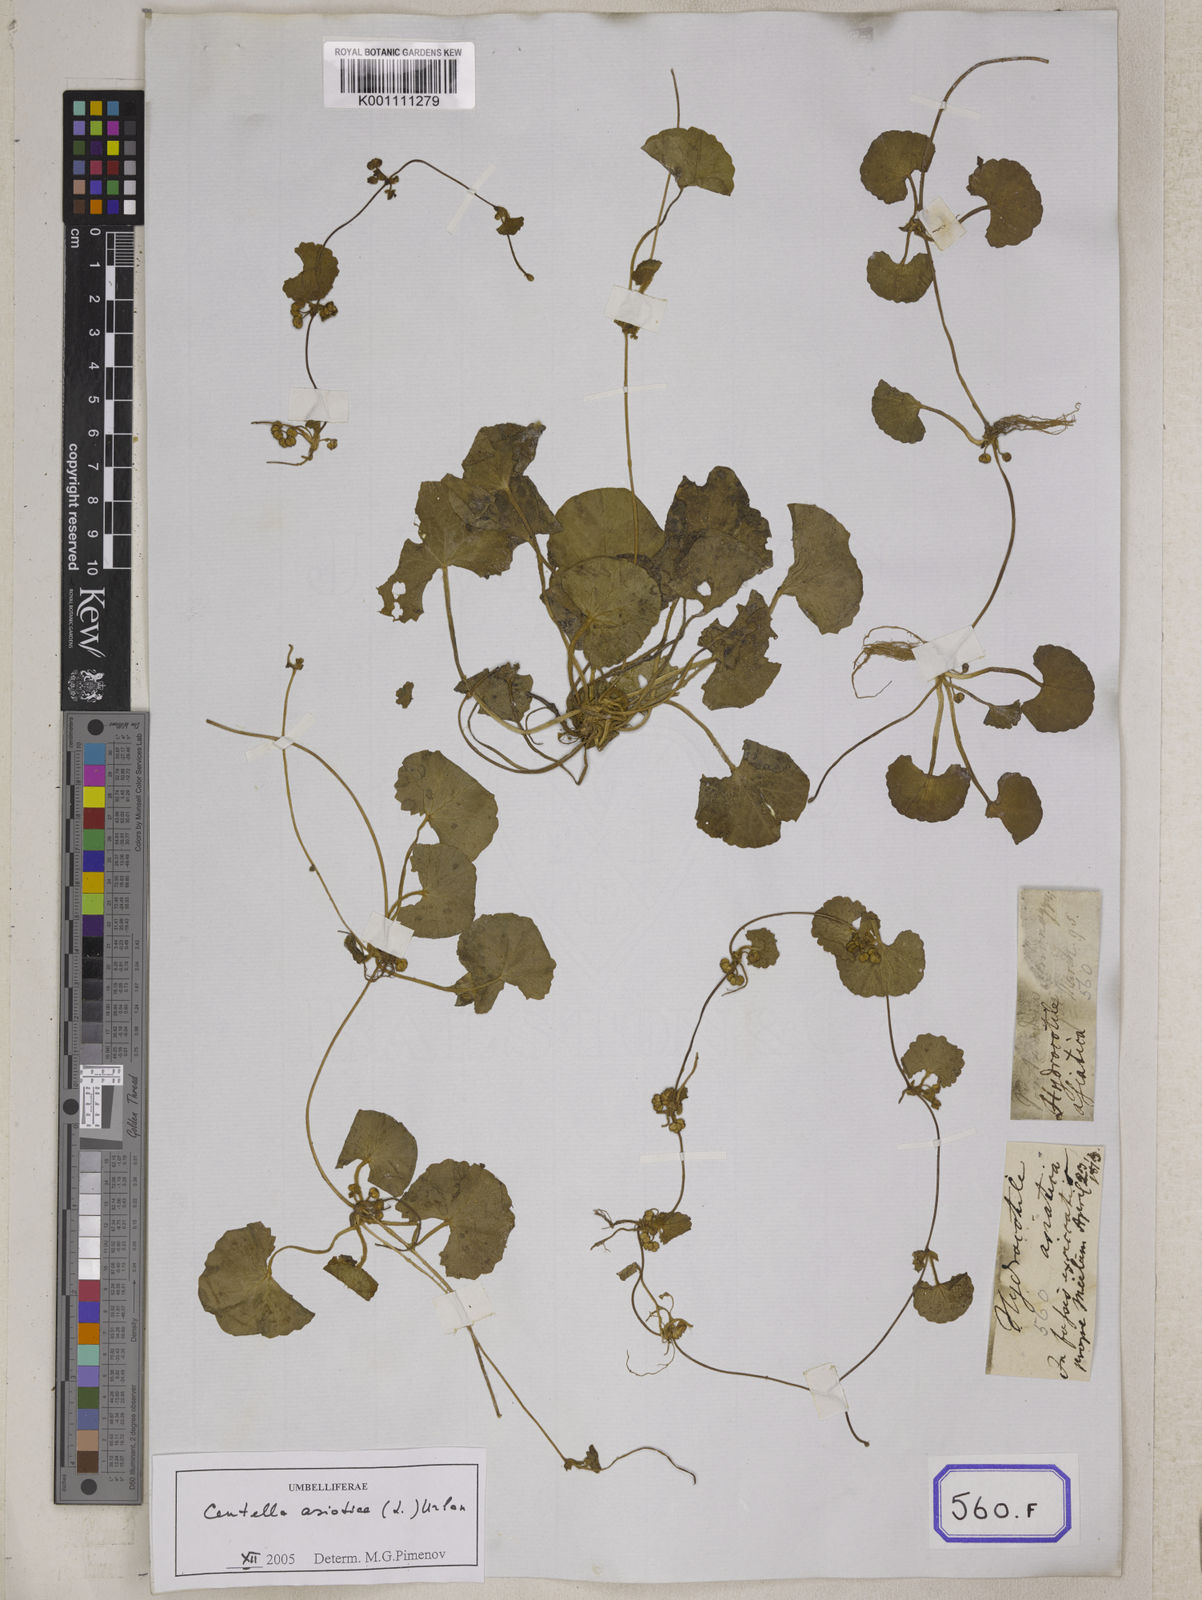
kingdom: Plantae
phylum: Tracheophyta
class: Magnoliopsida
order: Apiales
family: Apiaceae
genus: Centella
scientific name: Centella asiatica
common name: Spadeleaf
